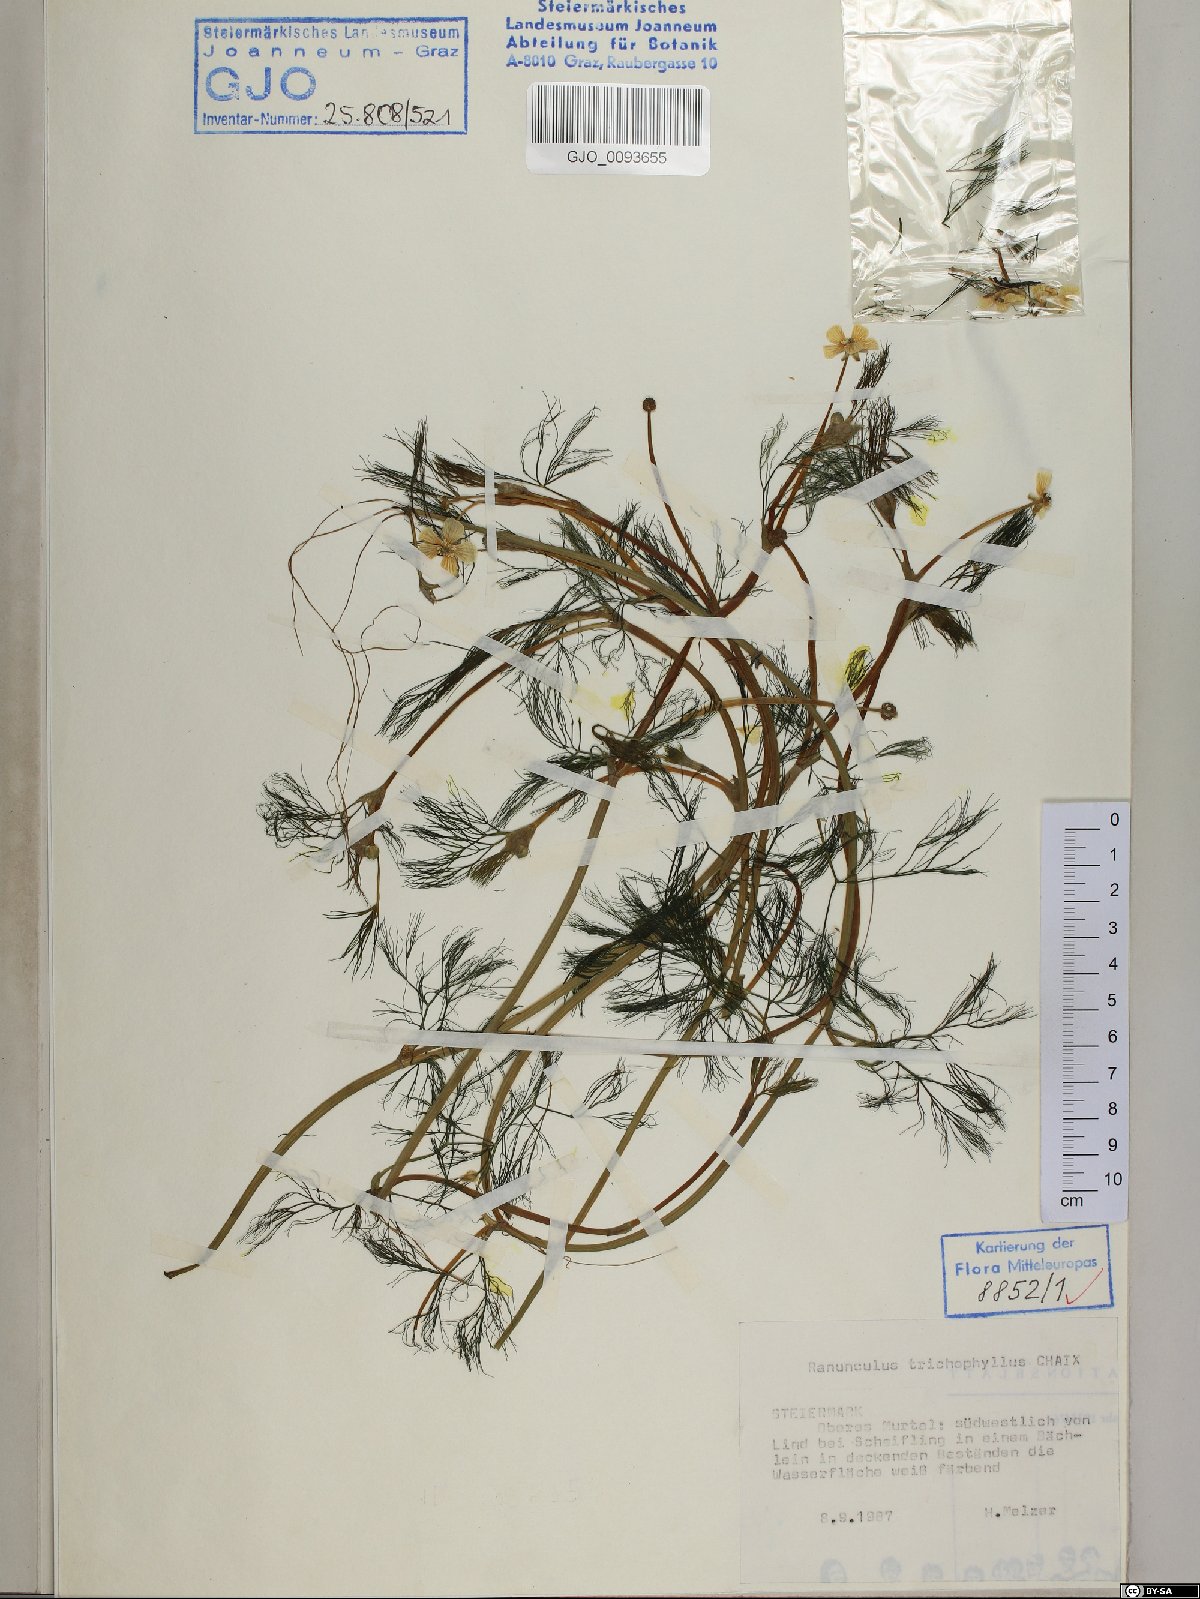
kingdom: Plantae
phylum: Tracheophyta
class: Magnoliopsida
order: Ranunculales
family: Ranunculaceae
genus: Ranunculus
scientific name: Ranunculus trichophyllus
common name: Thread-leaved water-crowfoot
